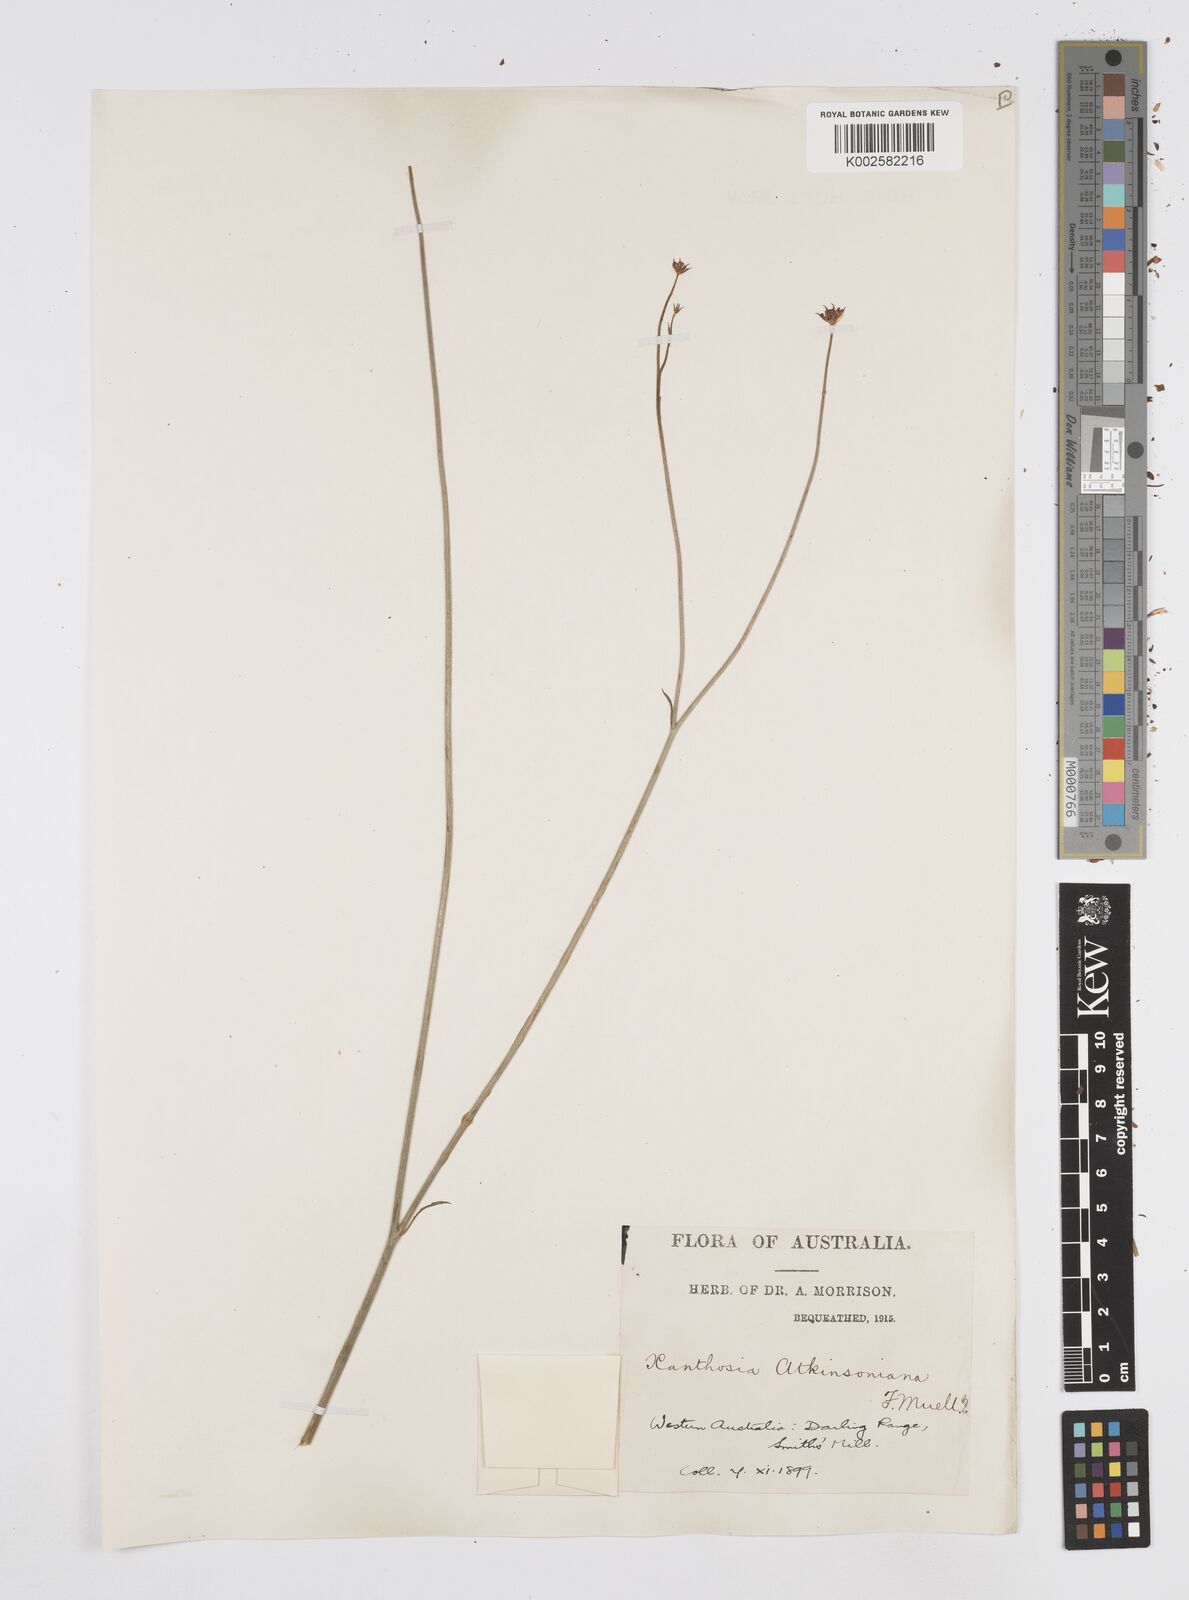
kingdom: Plantae
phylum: Tracheophyta
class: Magnoliopsida
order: Apiales
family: Apiaceae
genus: Xanthosia
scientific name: Xanthosia atkinsoniana
